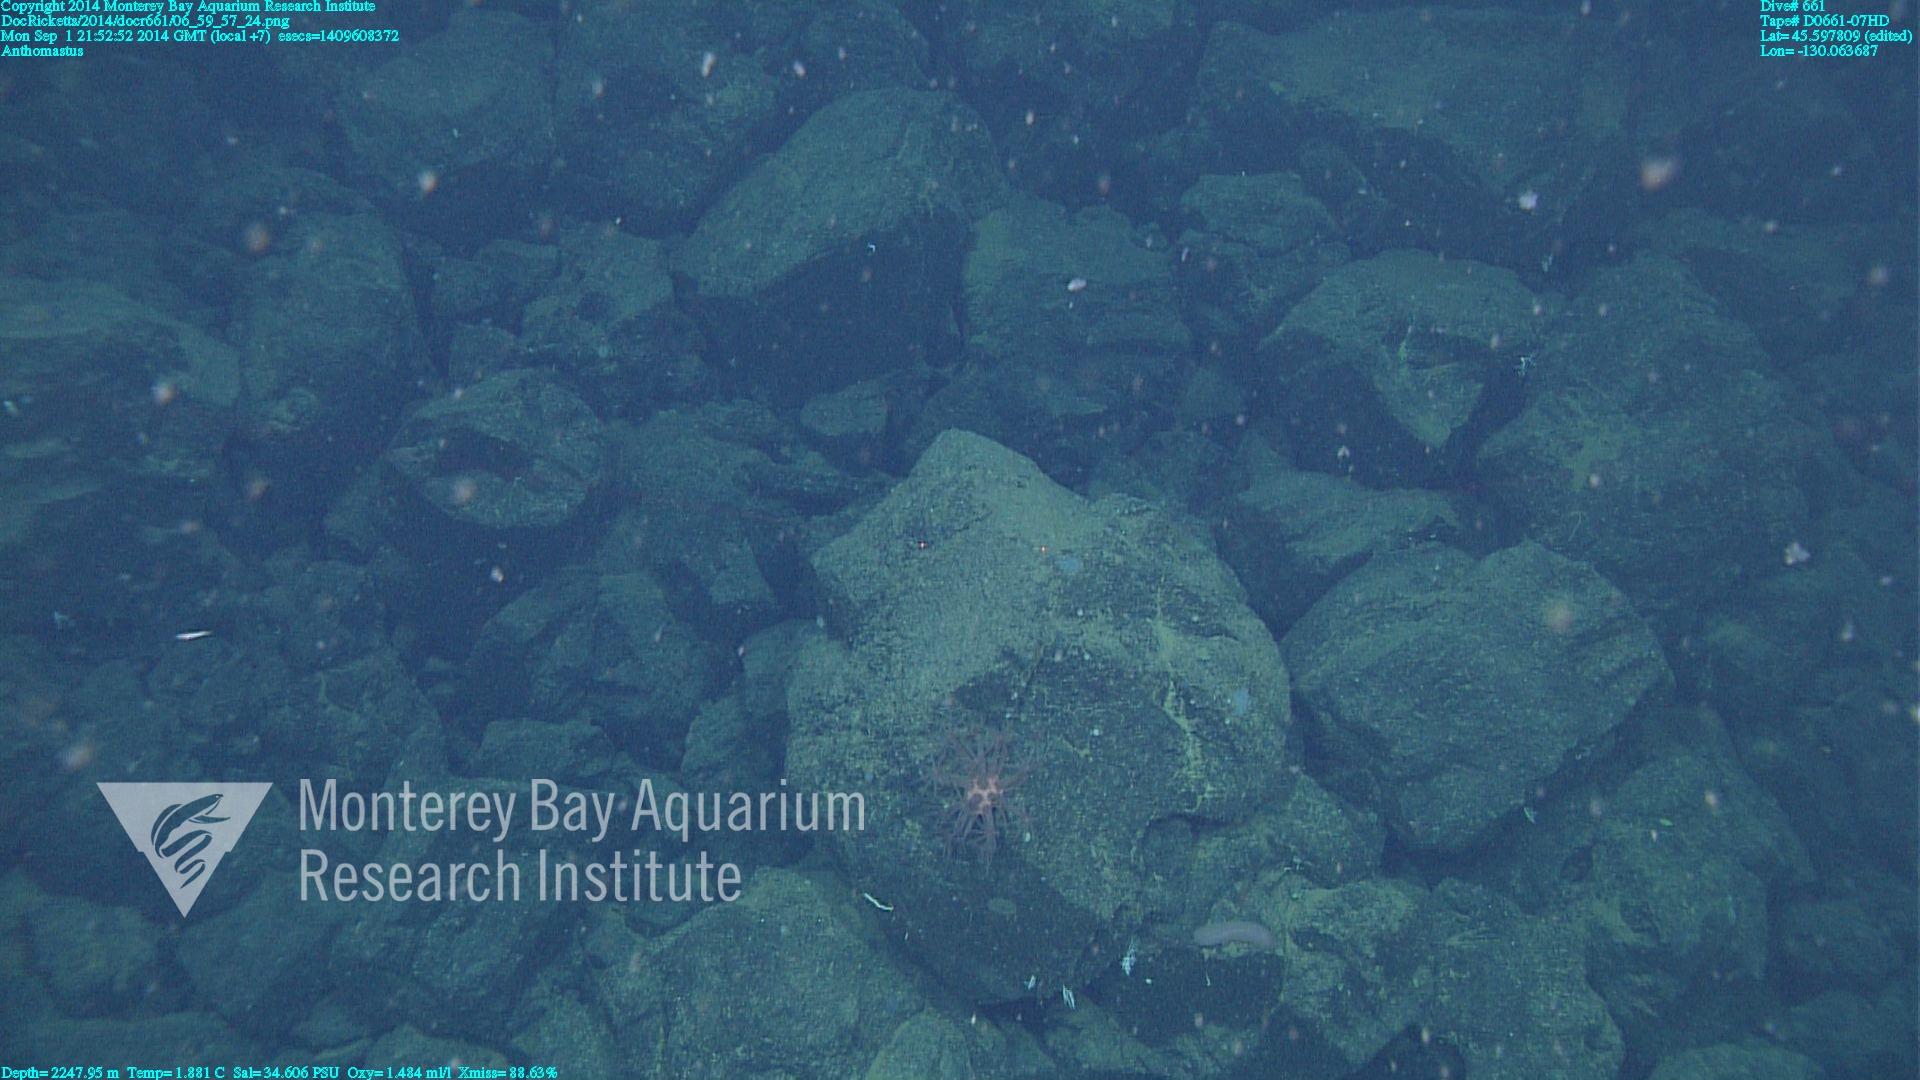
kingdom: Animalia
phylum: Cnidaria
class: Anthozoa
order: Scleralcyonacea
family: Coralliidae
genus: Heteropolypus
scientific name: Heteropolypus
